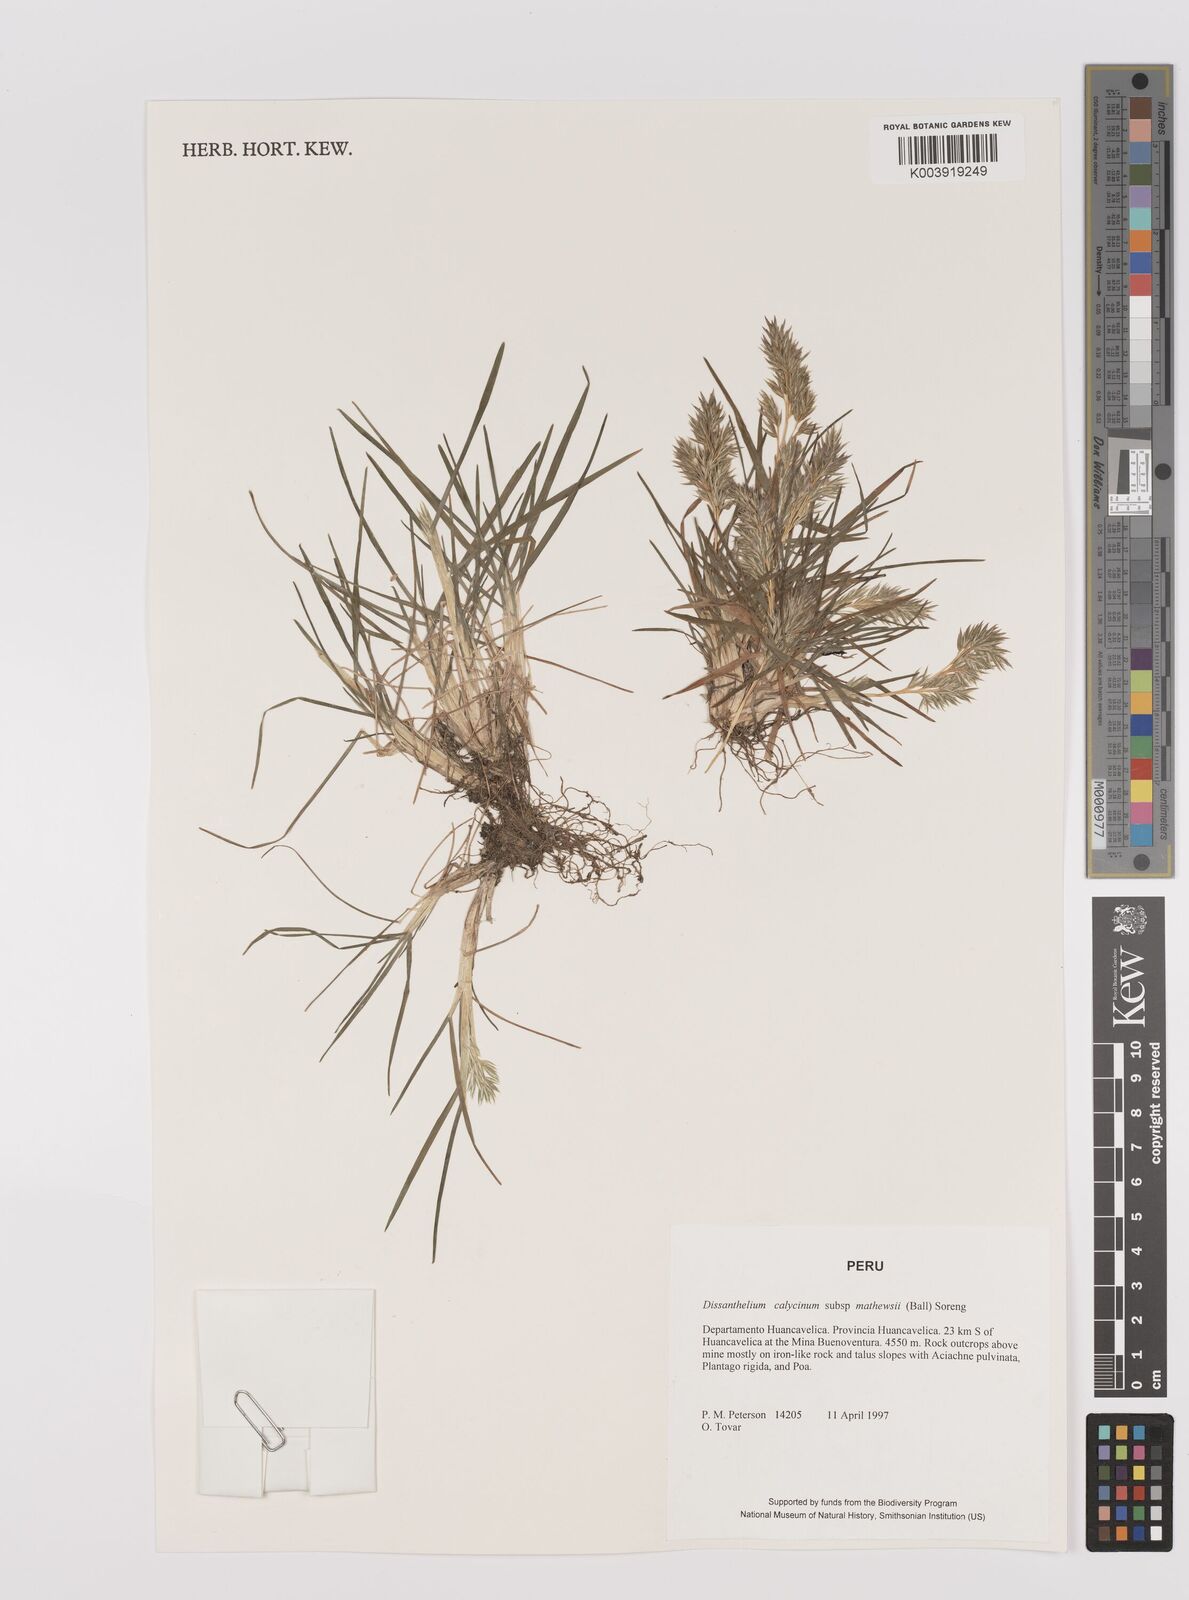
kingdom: Plantae
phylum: Tracheophyta
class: Liliopsida
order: Poales
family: Poaceae
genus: Poa
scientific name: Poa calycina
